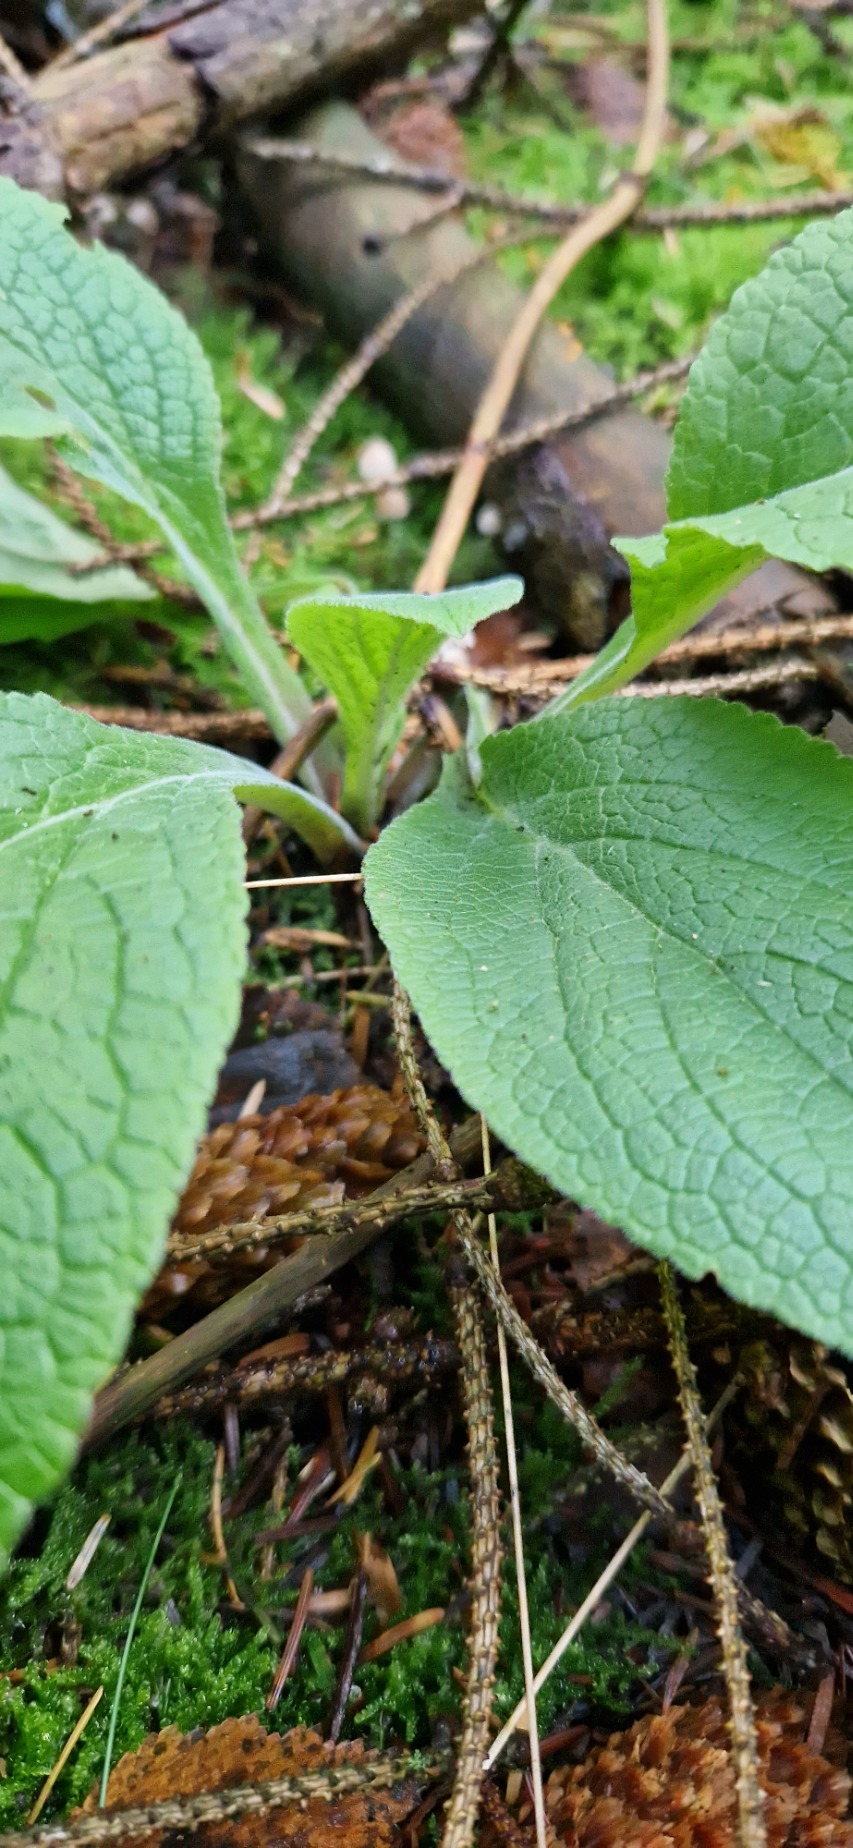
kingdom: Plantae
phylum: Tracheophyta
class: Magnoliopsida
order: Lamiales
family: Plantaginaceae
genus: Digitalis
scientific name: Digitalis purpurea
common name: Almindelig fingerbøl
